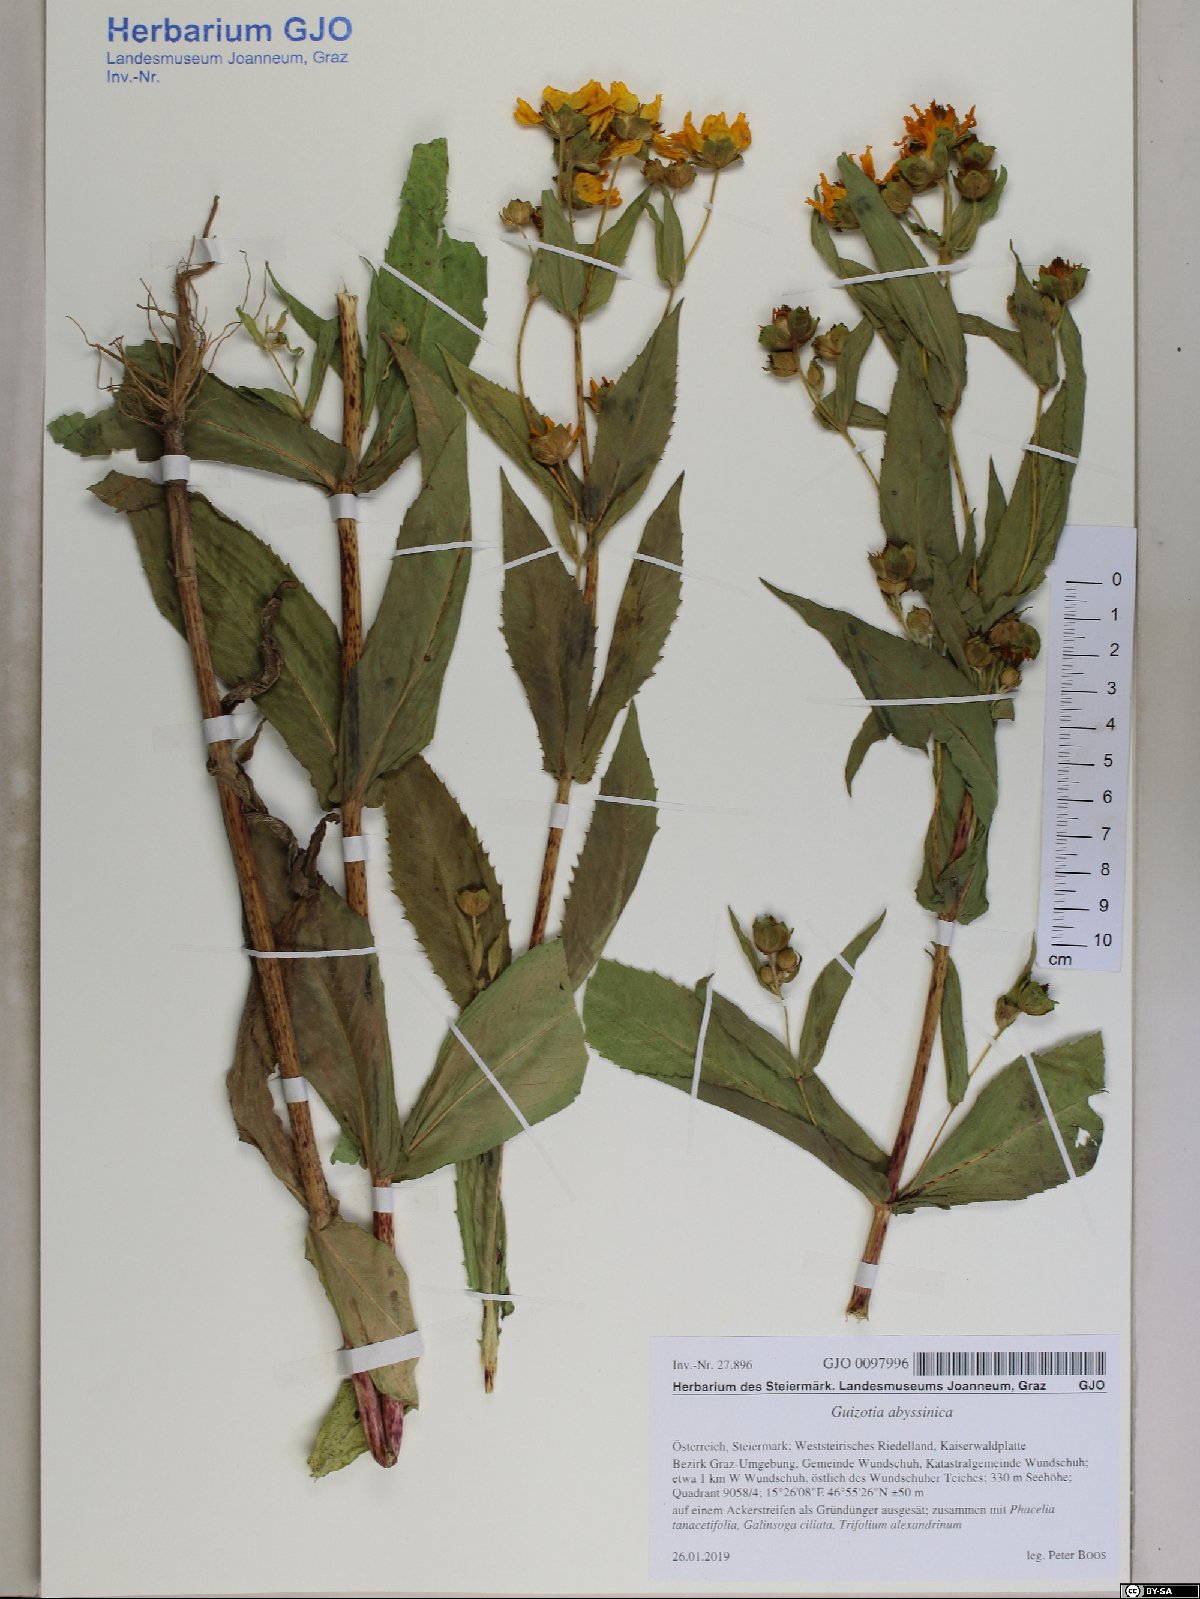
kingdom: Plantae
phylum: Tracheophyta
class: Magnoliopsida
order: Asterales
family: Asteraceae
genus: Guizotia
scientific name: Guizotia abyssinica
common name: Niger
